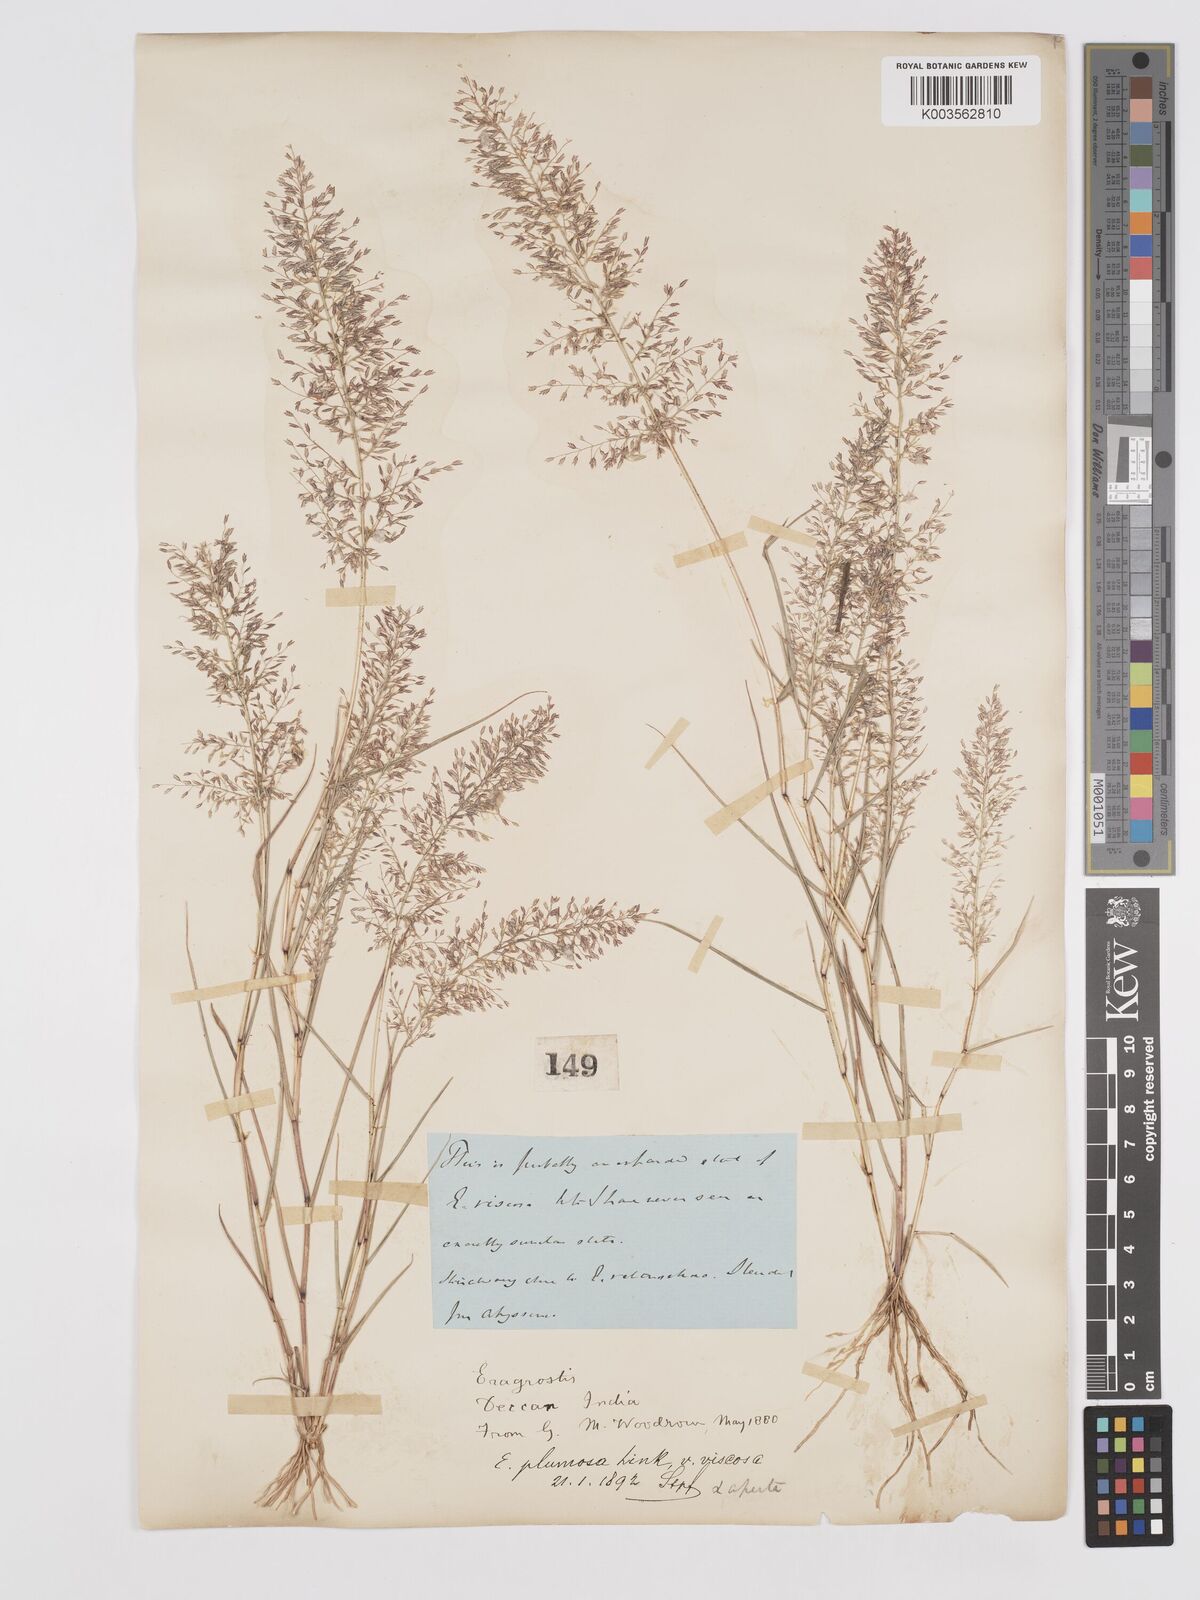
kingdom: Plantae
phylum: Tracheophyta
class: Liliopsida
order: Poales
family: Poaceae
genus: Eragrostis
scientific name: Eragrostis viscosa
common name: Sticky love grass
